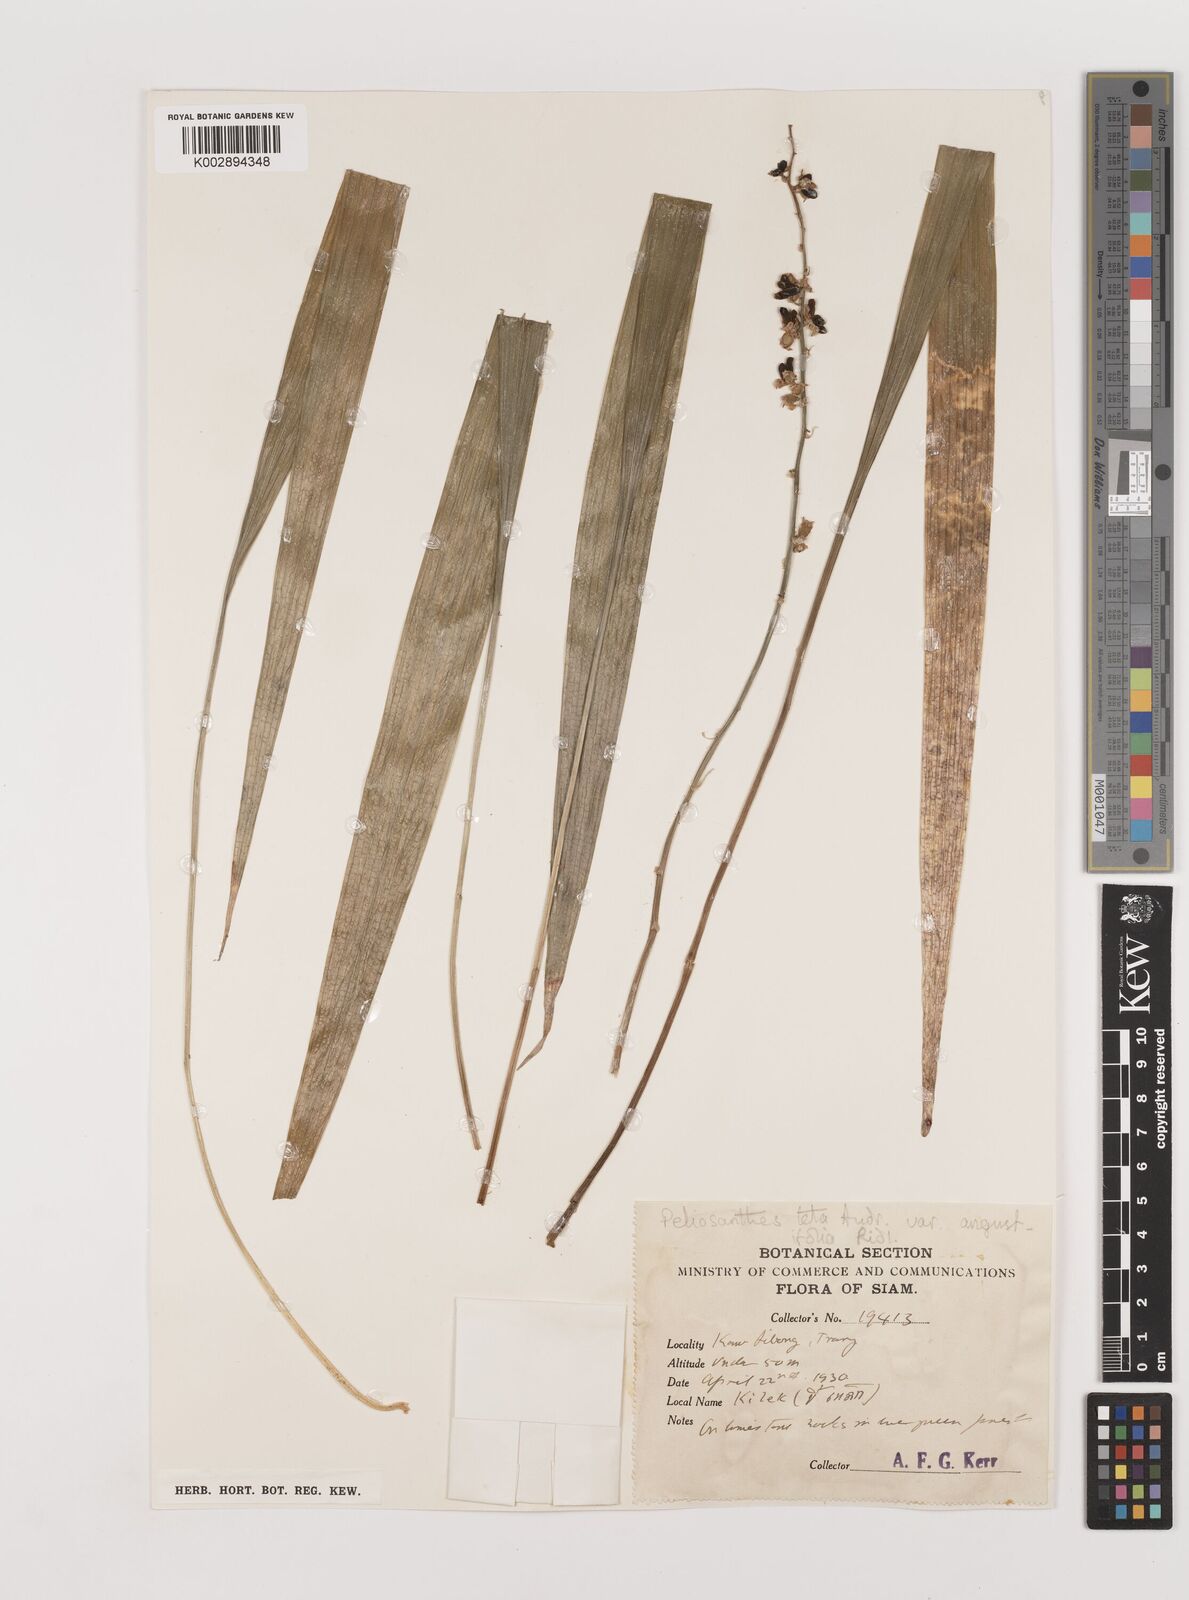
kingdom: Plantae
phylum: Tracheophyta
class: Liliopsida
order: Asparagales
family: Asparagaceae
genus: Peliosanthes
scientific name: Peliosanthes teta
